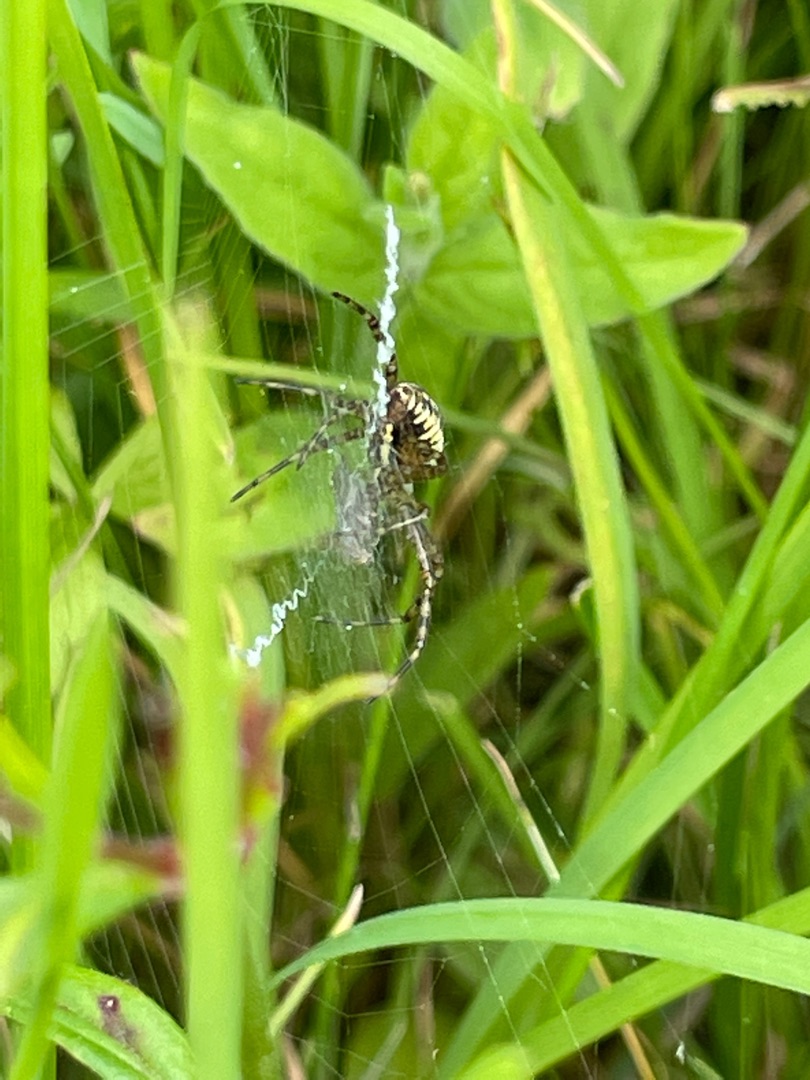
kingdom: Animalia
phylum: Arthropoda
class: Arachnida
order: Araneae
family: Araneidae
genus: Argiope
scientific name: Argiope bruennichi
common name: Hvepseedderkop
